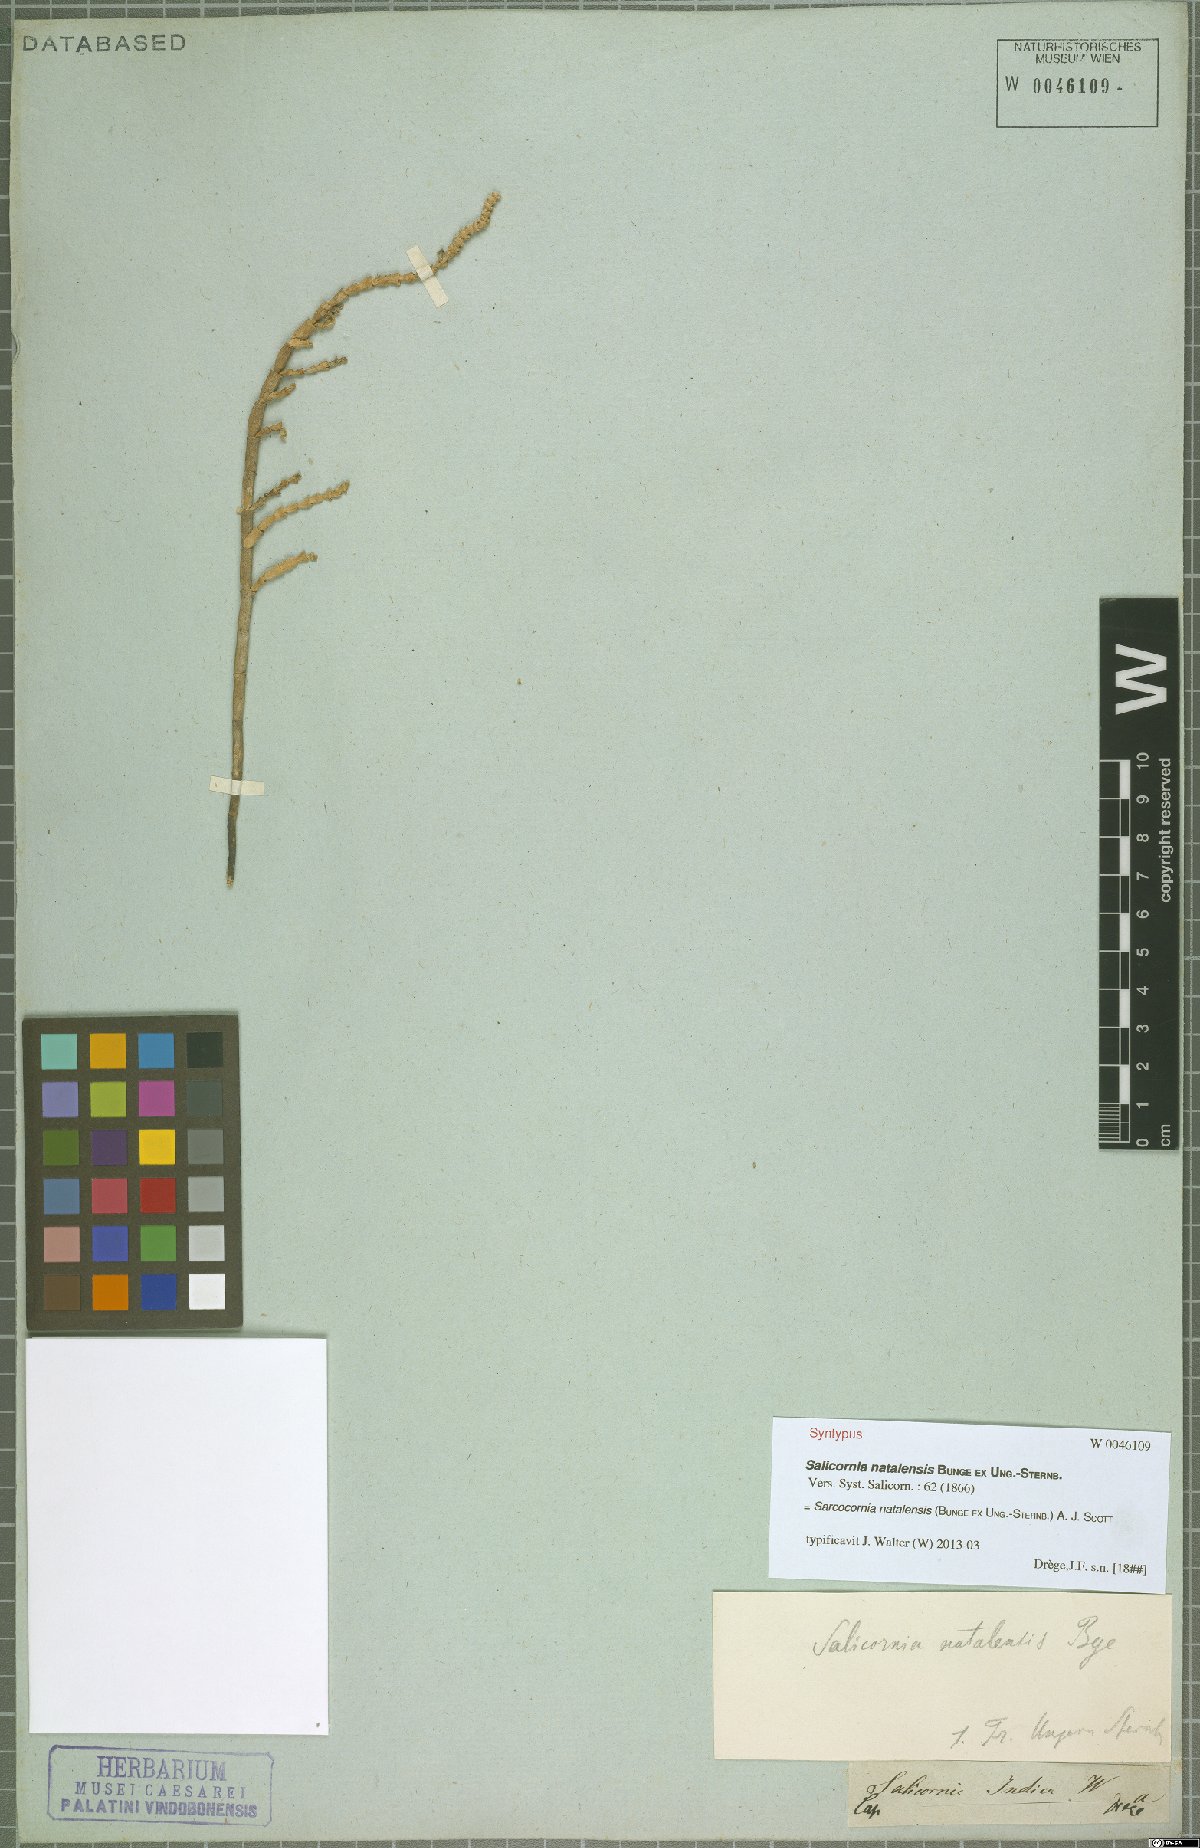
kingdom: Plantae
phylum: Tracheophyta
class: Magnoliopsida
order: Caryophyllales
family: Amaranthaceae
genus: Salicornia
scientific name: Salicornia natalensis
